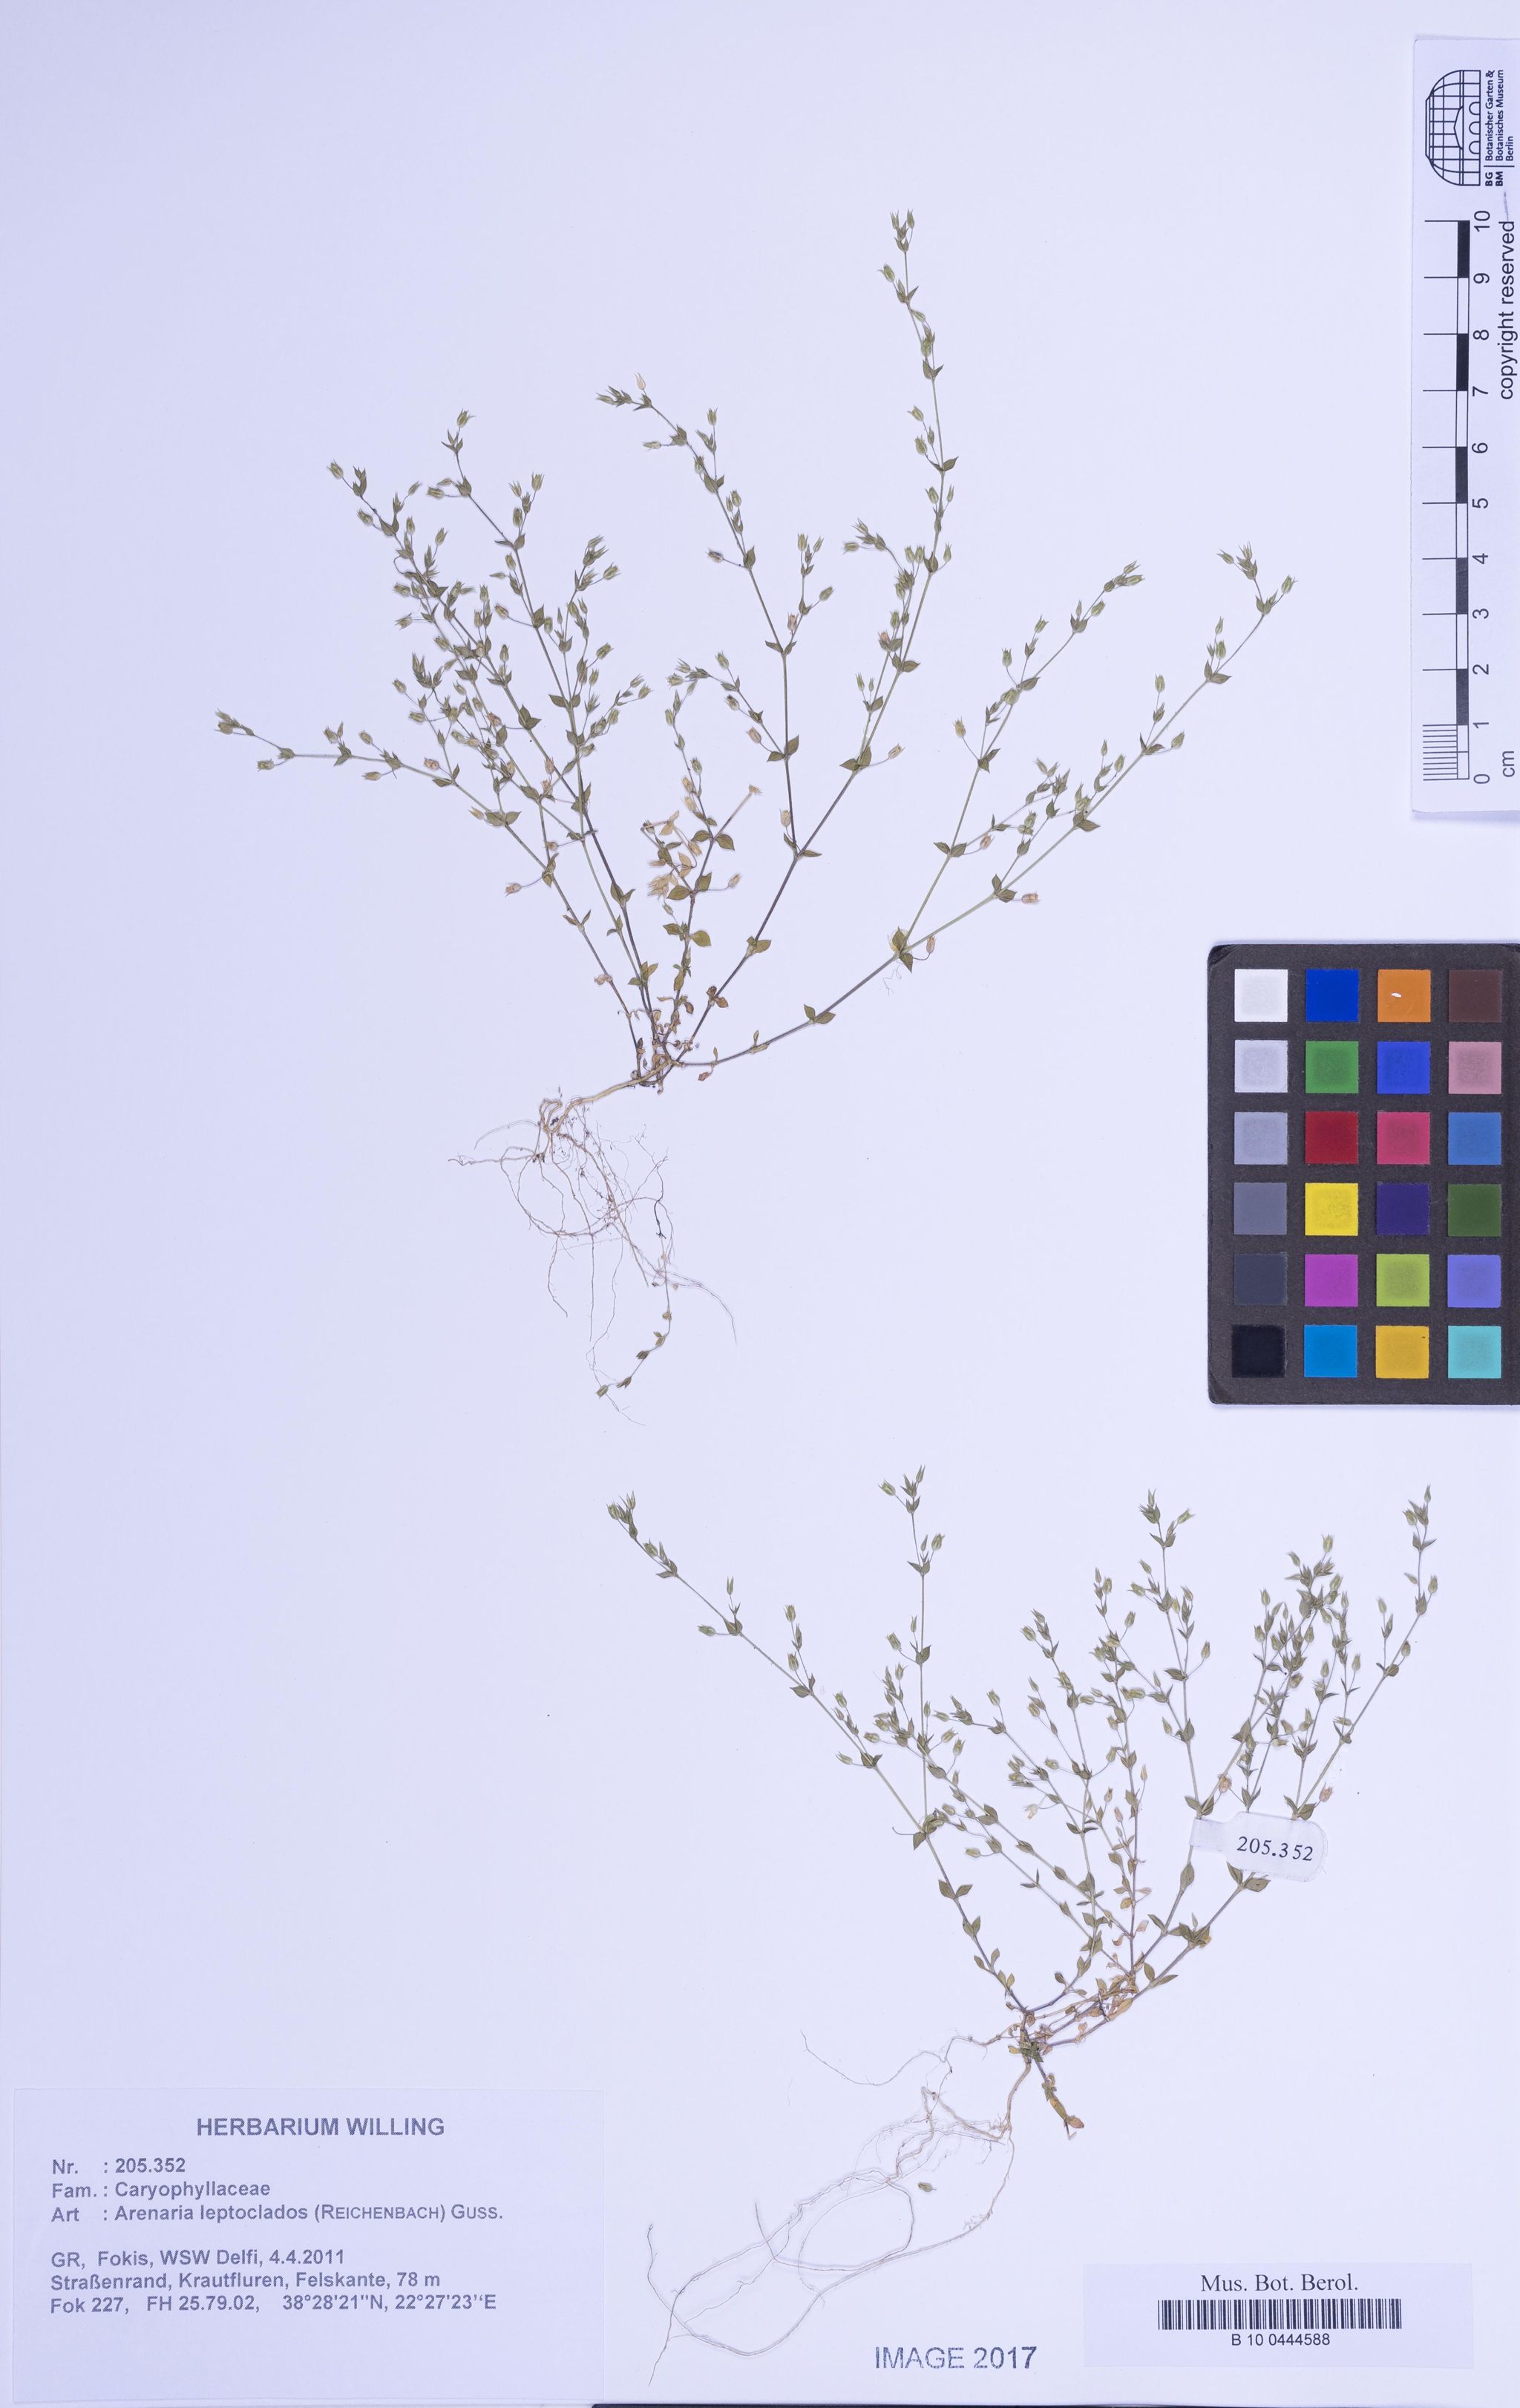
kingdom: Plantae
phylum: Tracheophyta
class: Magnoliopsida
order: Caryophyllales
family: Caryophyllaceae
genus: Arenaria
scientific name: Arenaria leptoclados
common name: Thyme-leaved sandwort
